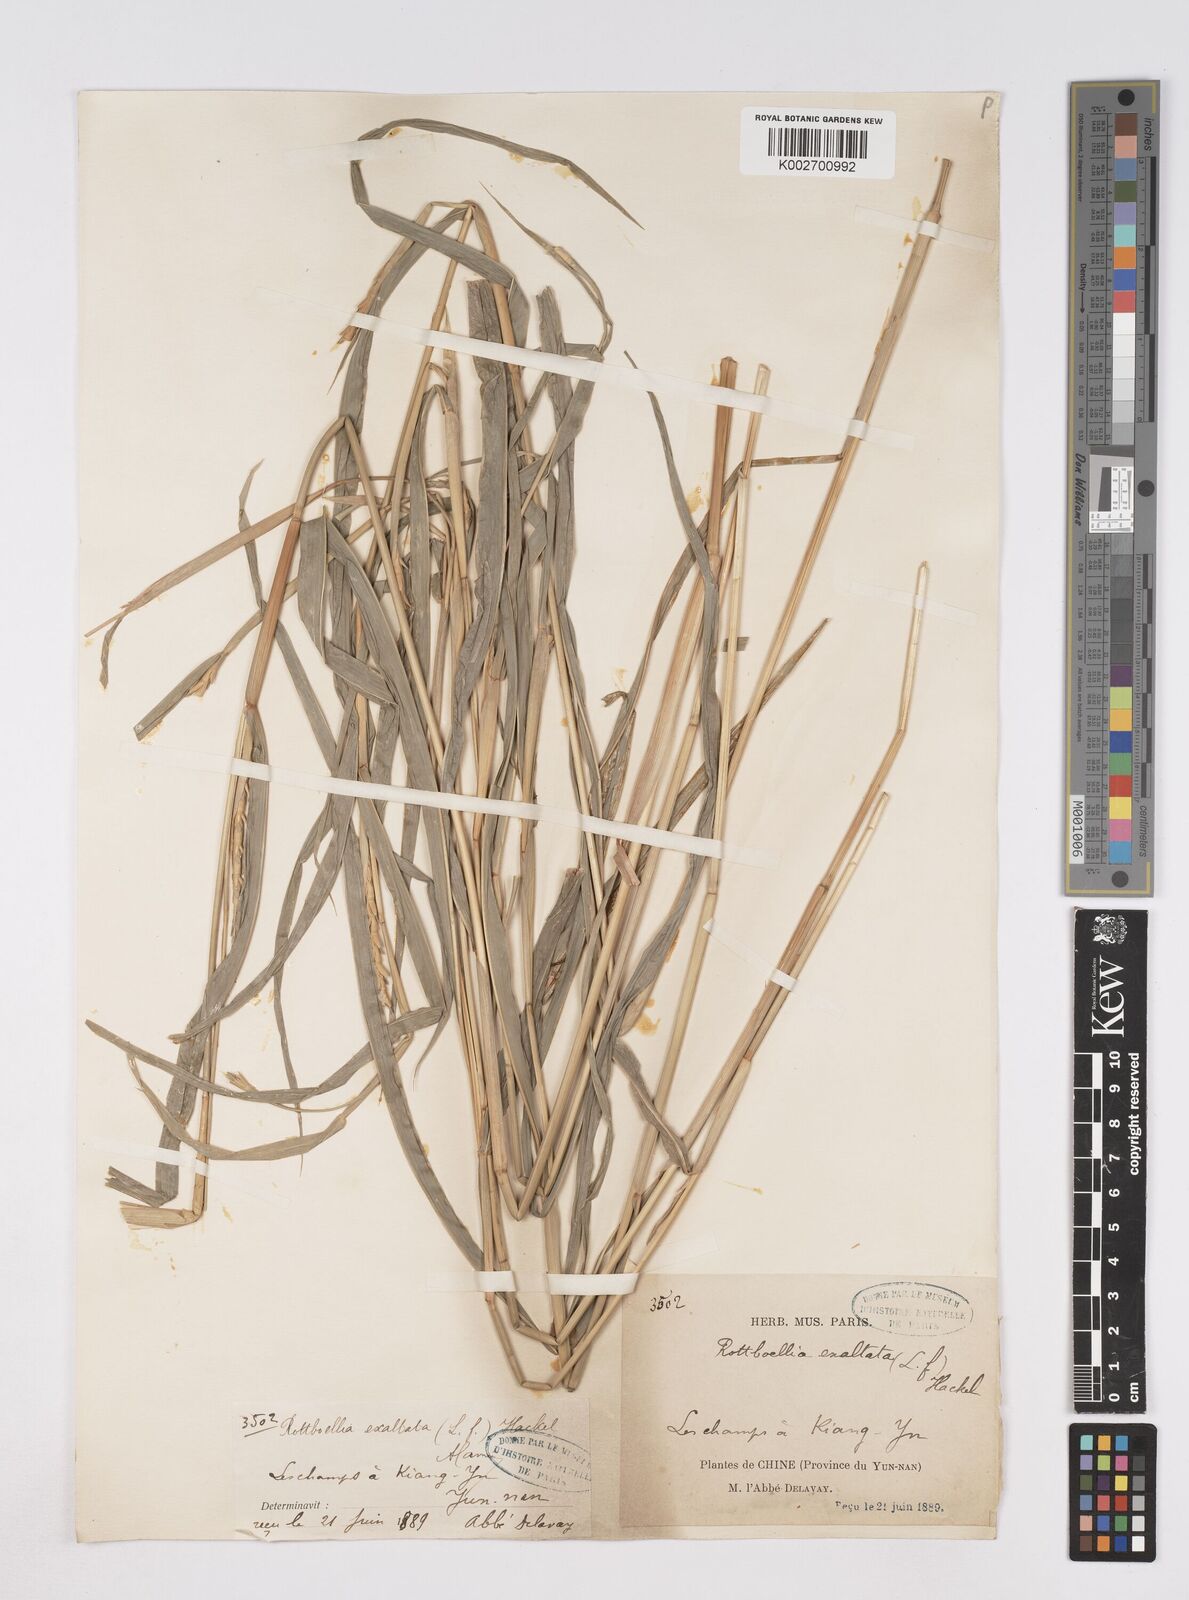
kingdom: Plantae
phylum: Tracheophyta
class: Liliopsida
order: Poales
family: Poaceae
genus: Ophiuros
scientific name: Ophiuros exaltatus
